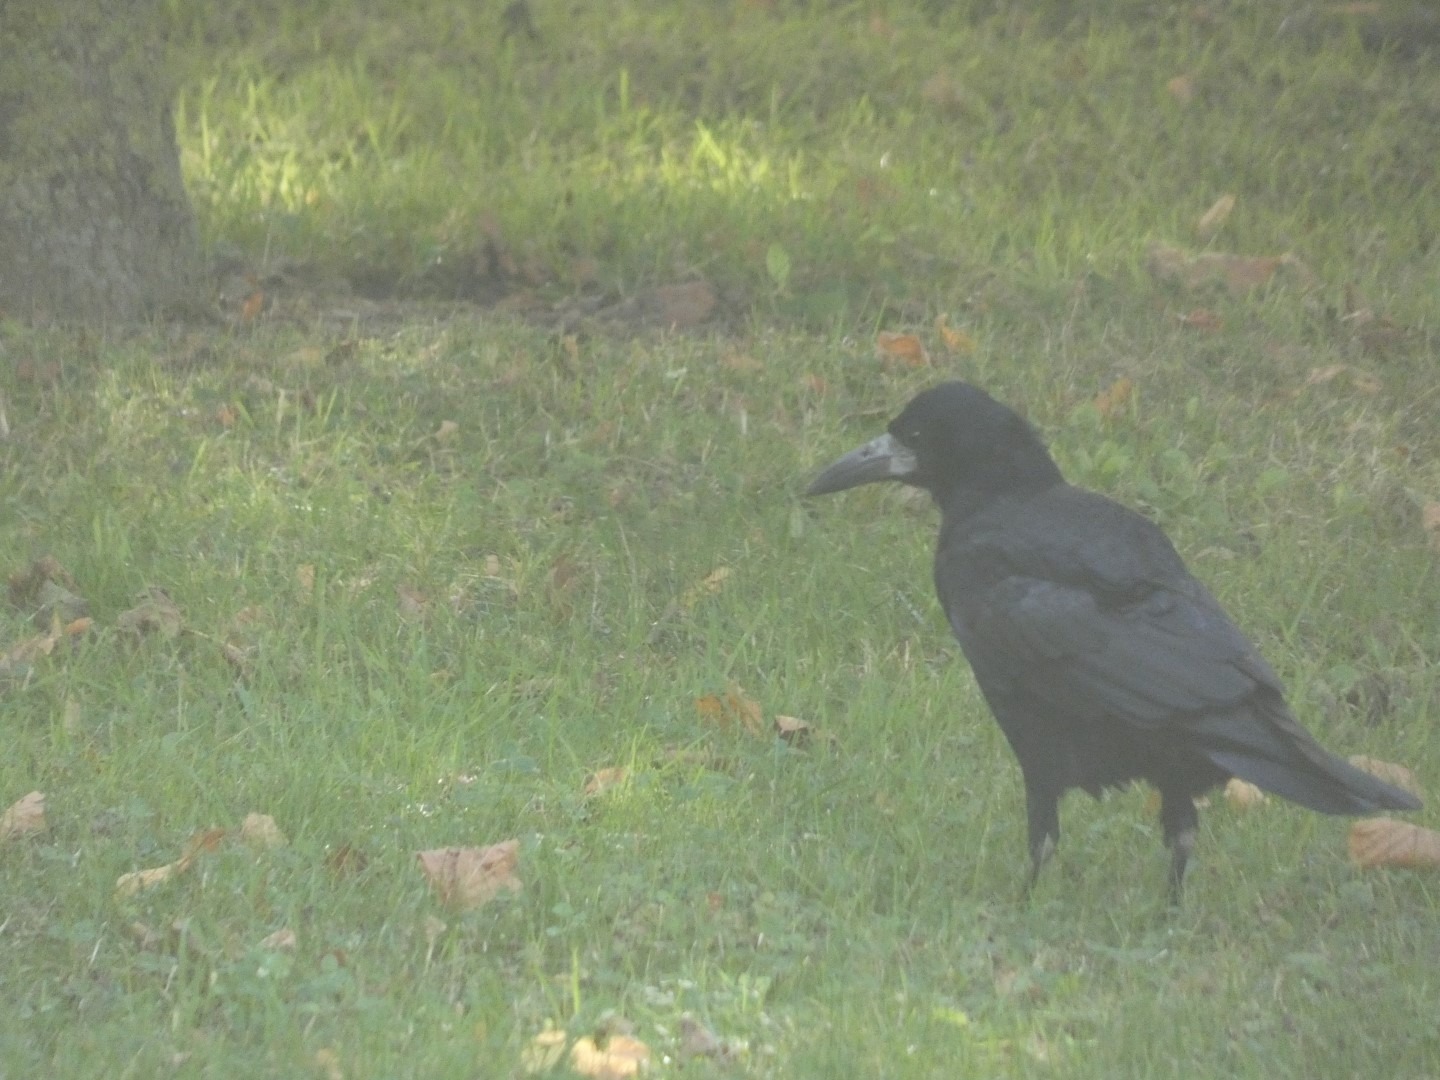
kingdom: Animalia
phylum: Chordata
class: Aves
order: Passeriformes
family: Corvidae
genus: Corvus
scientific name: Corvus frugilegus
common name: Råge
